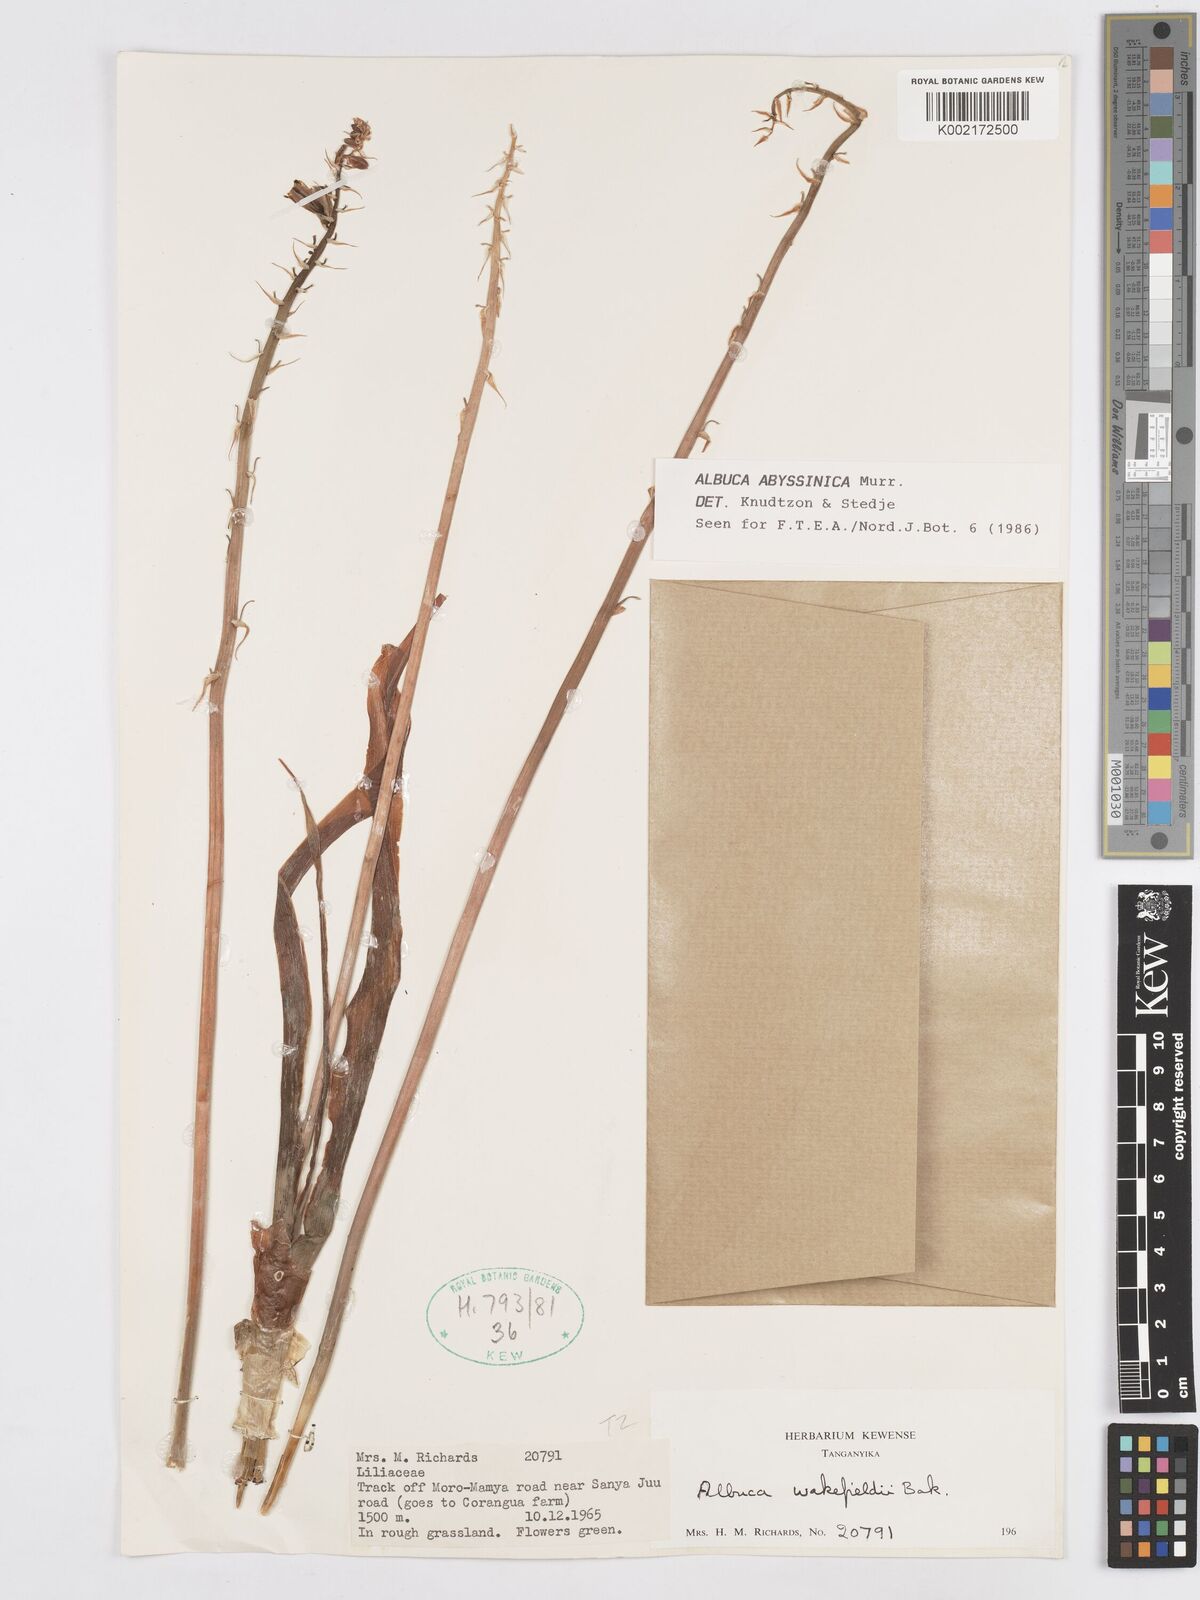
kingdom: Plantae
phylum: Tracheophyta
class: Liliopsida
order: Asparagales
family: Asparagaceae
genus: Albuca
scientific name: Albuca abyssinica
